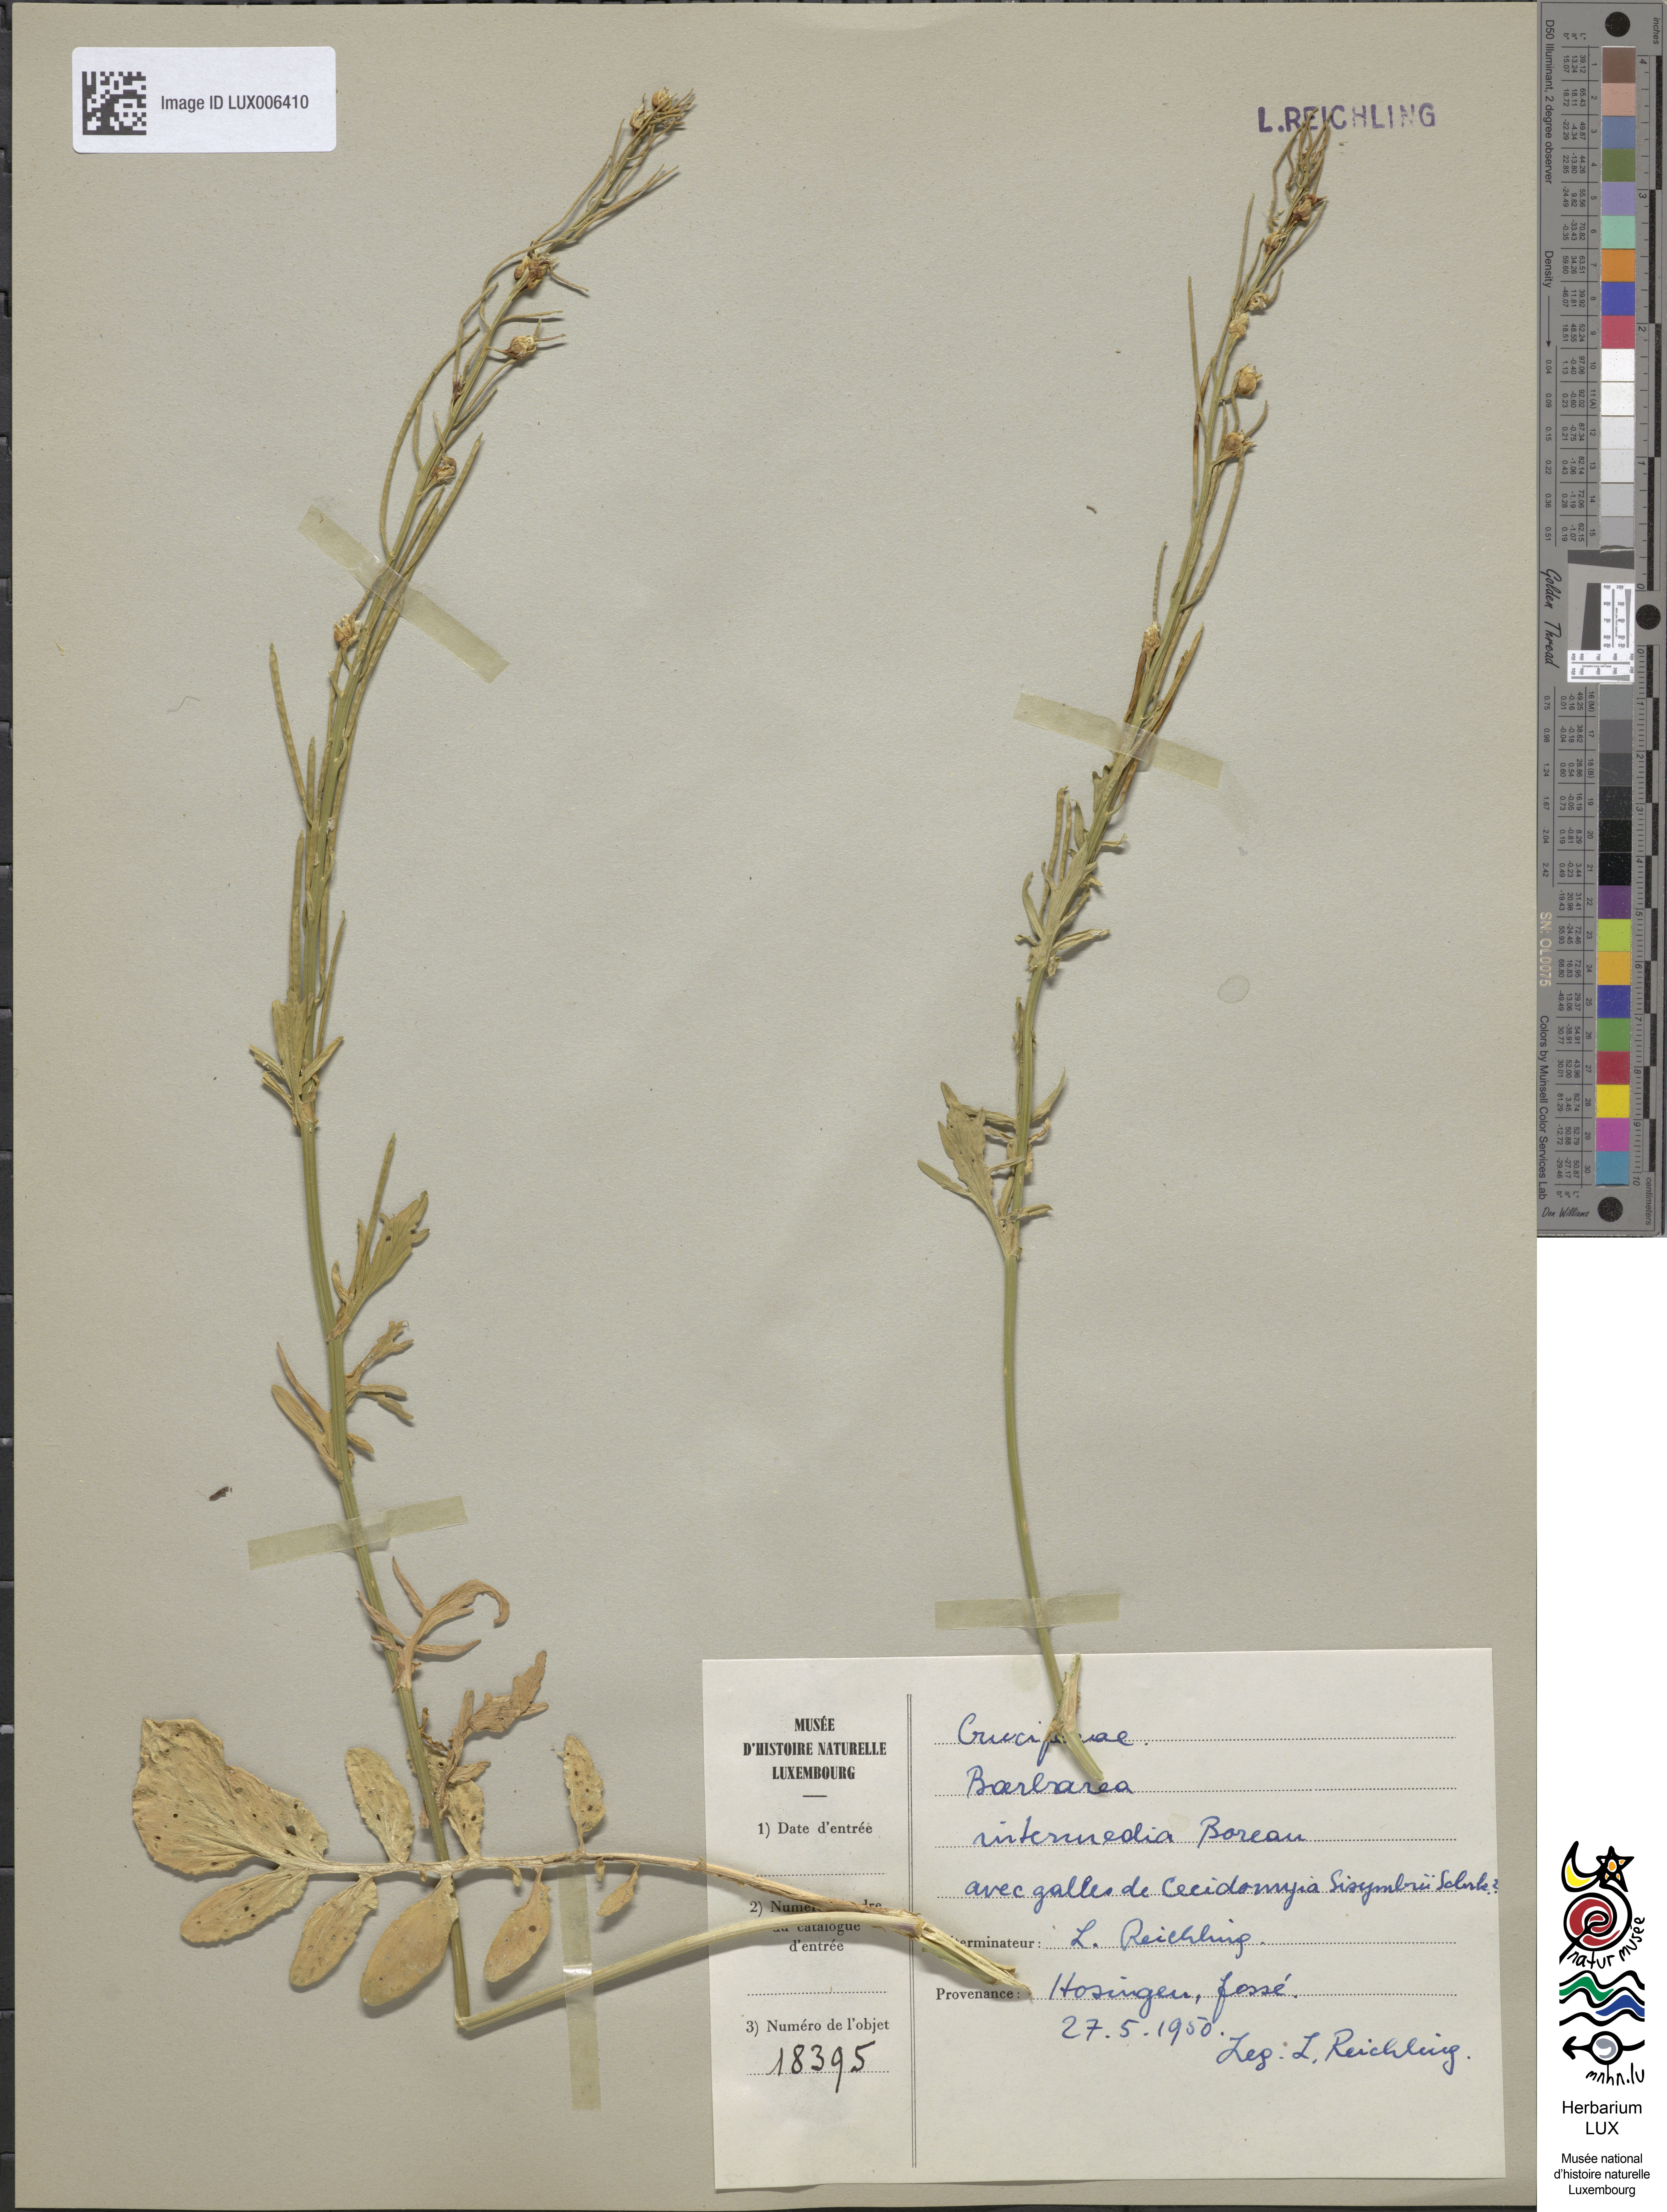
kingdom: Plantae
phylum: Tracheophyta
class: Magnoliopsida
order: Brassicales
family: Brassicaceae
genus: Barbarea
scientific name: Barbarea intermedia
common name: Medium-flowered winter-cress
